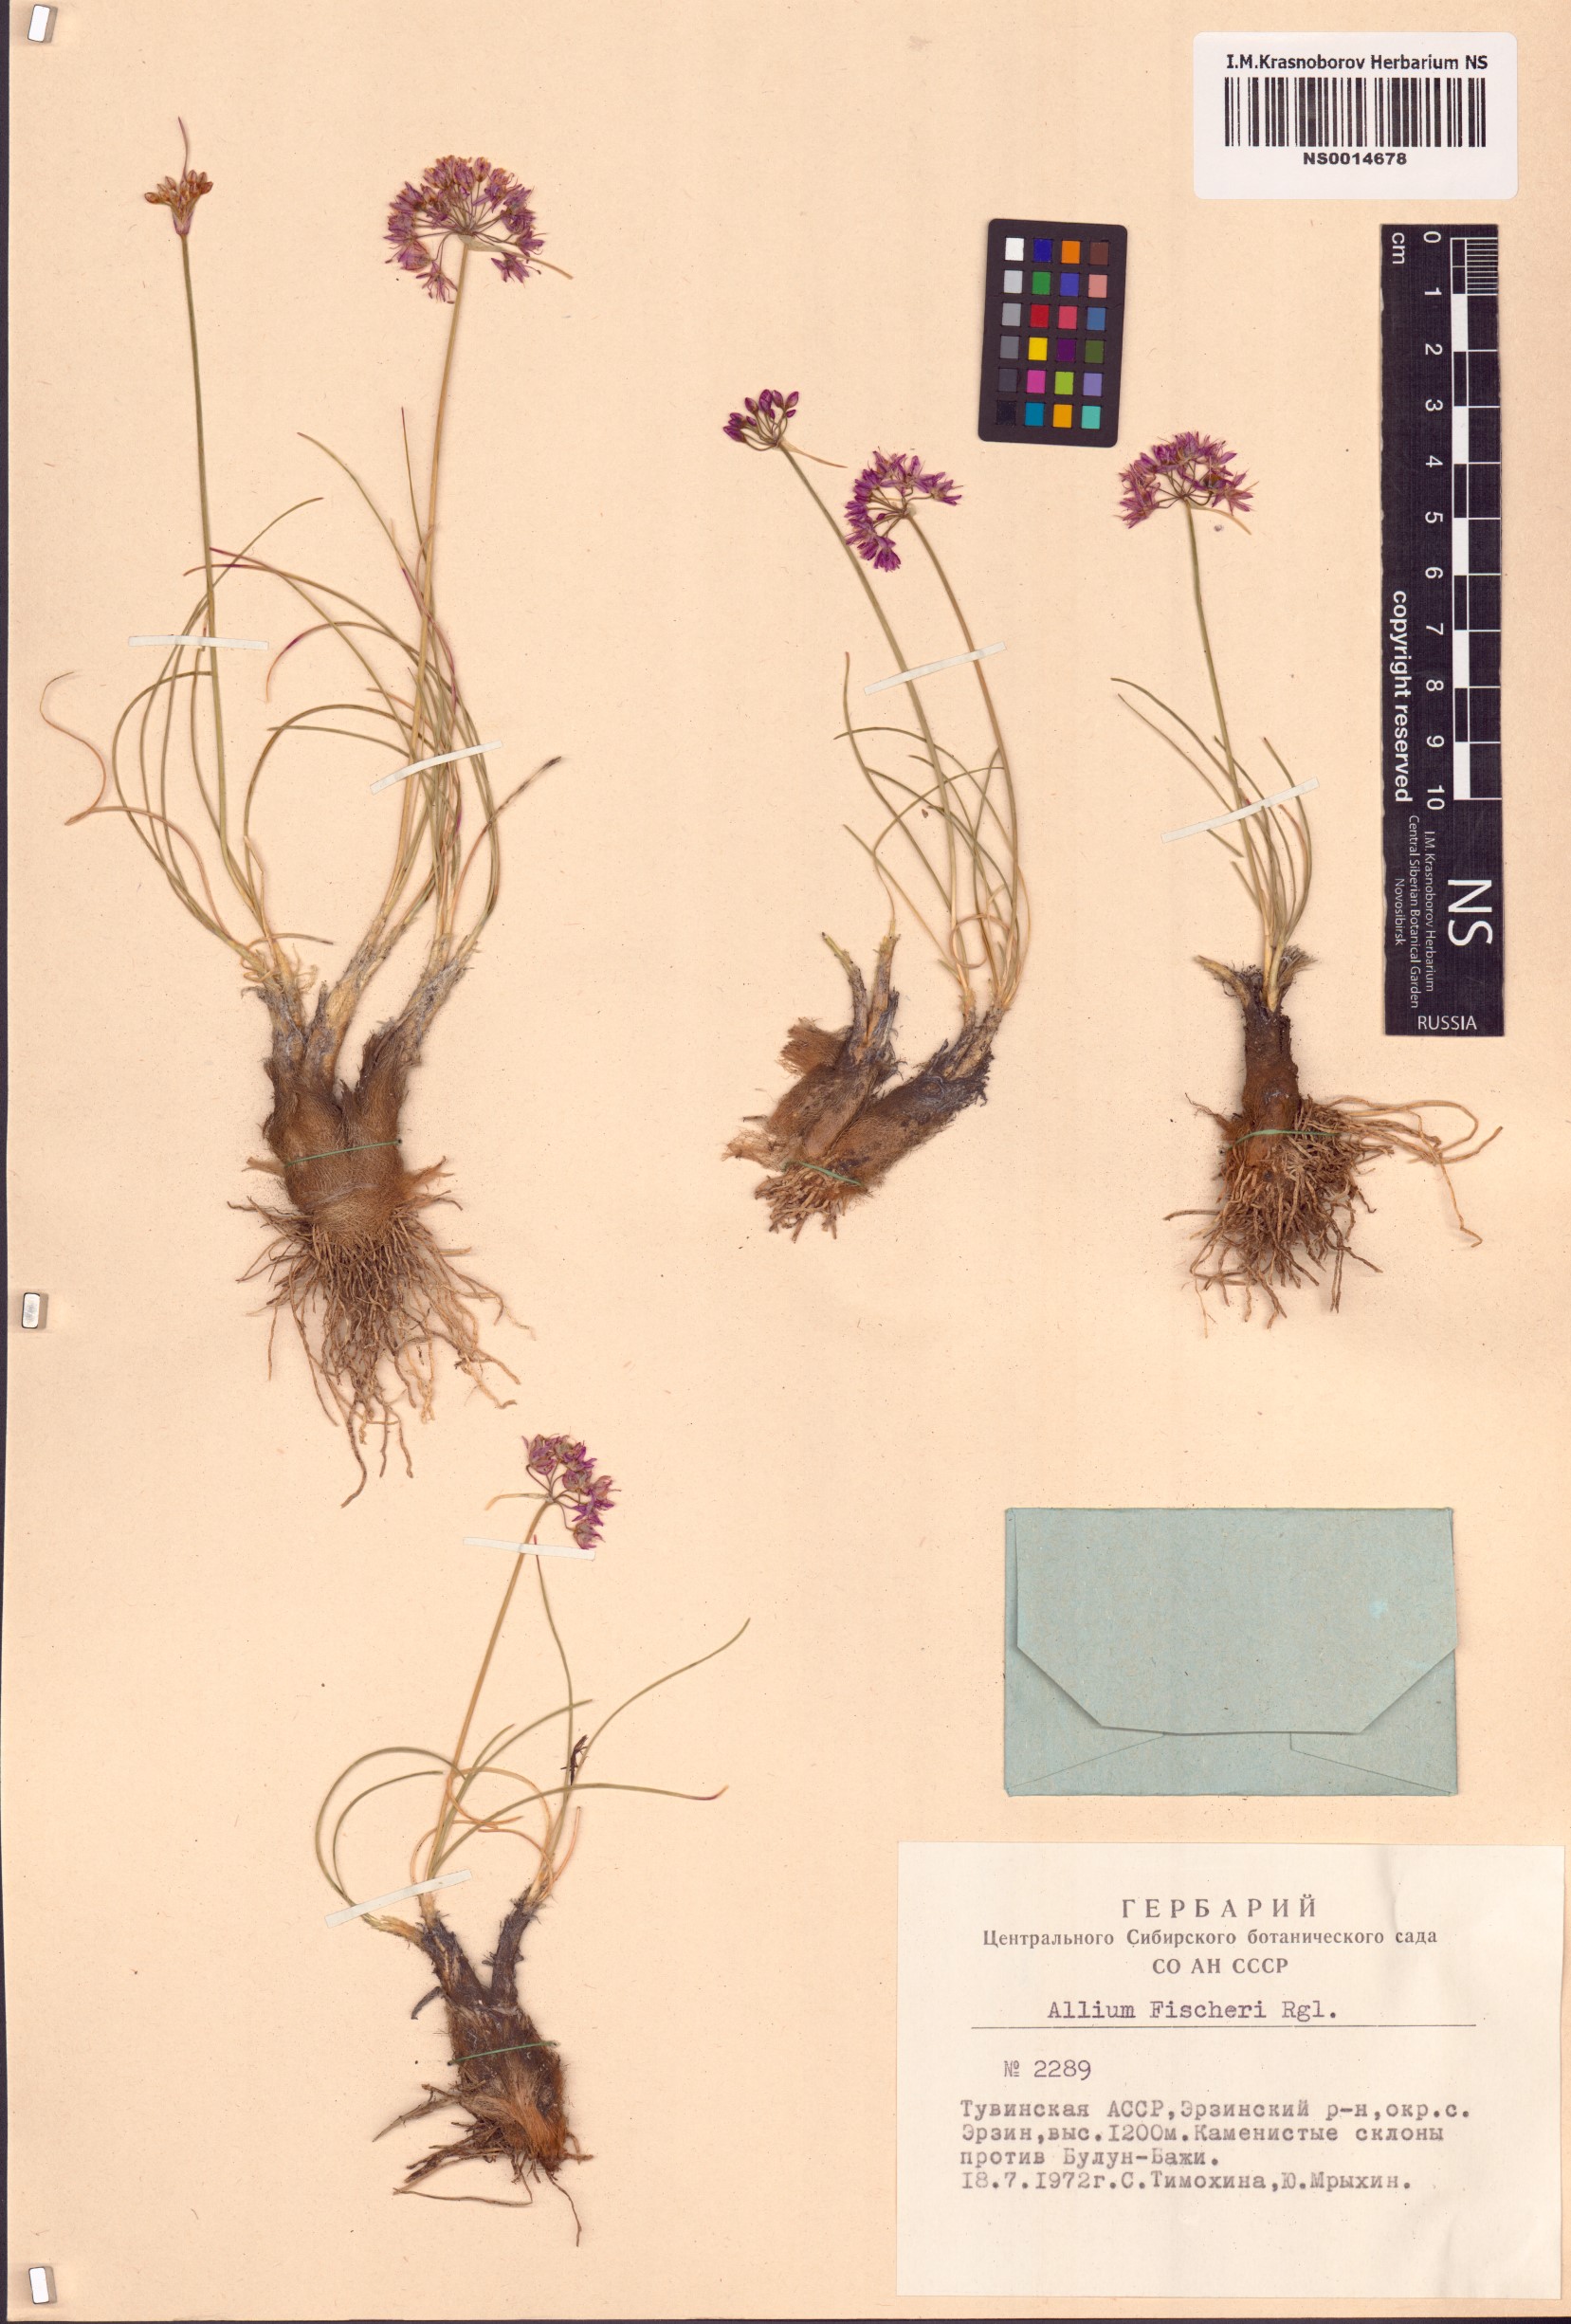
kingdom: Plantae
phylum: Tracheophyta
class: Liliopsida
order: Asparagales
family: Amaryllidaceae
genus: Allium
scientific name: Allium eduardi
